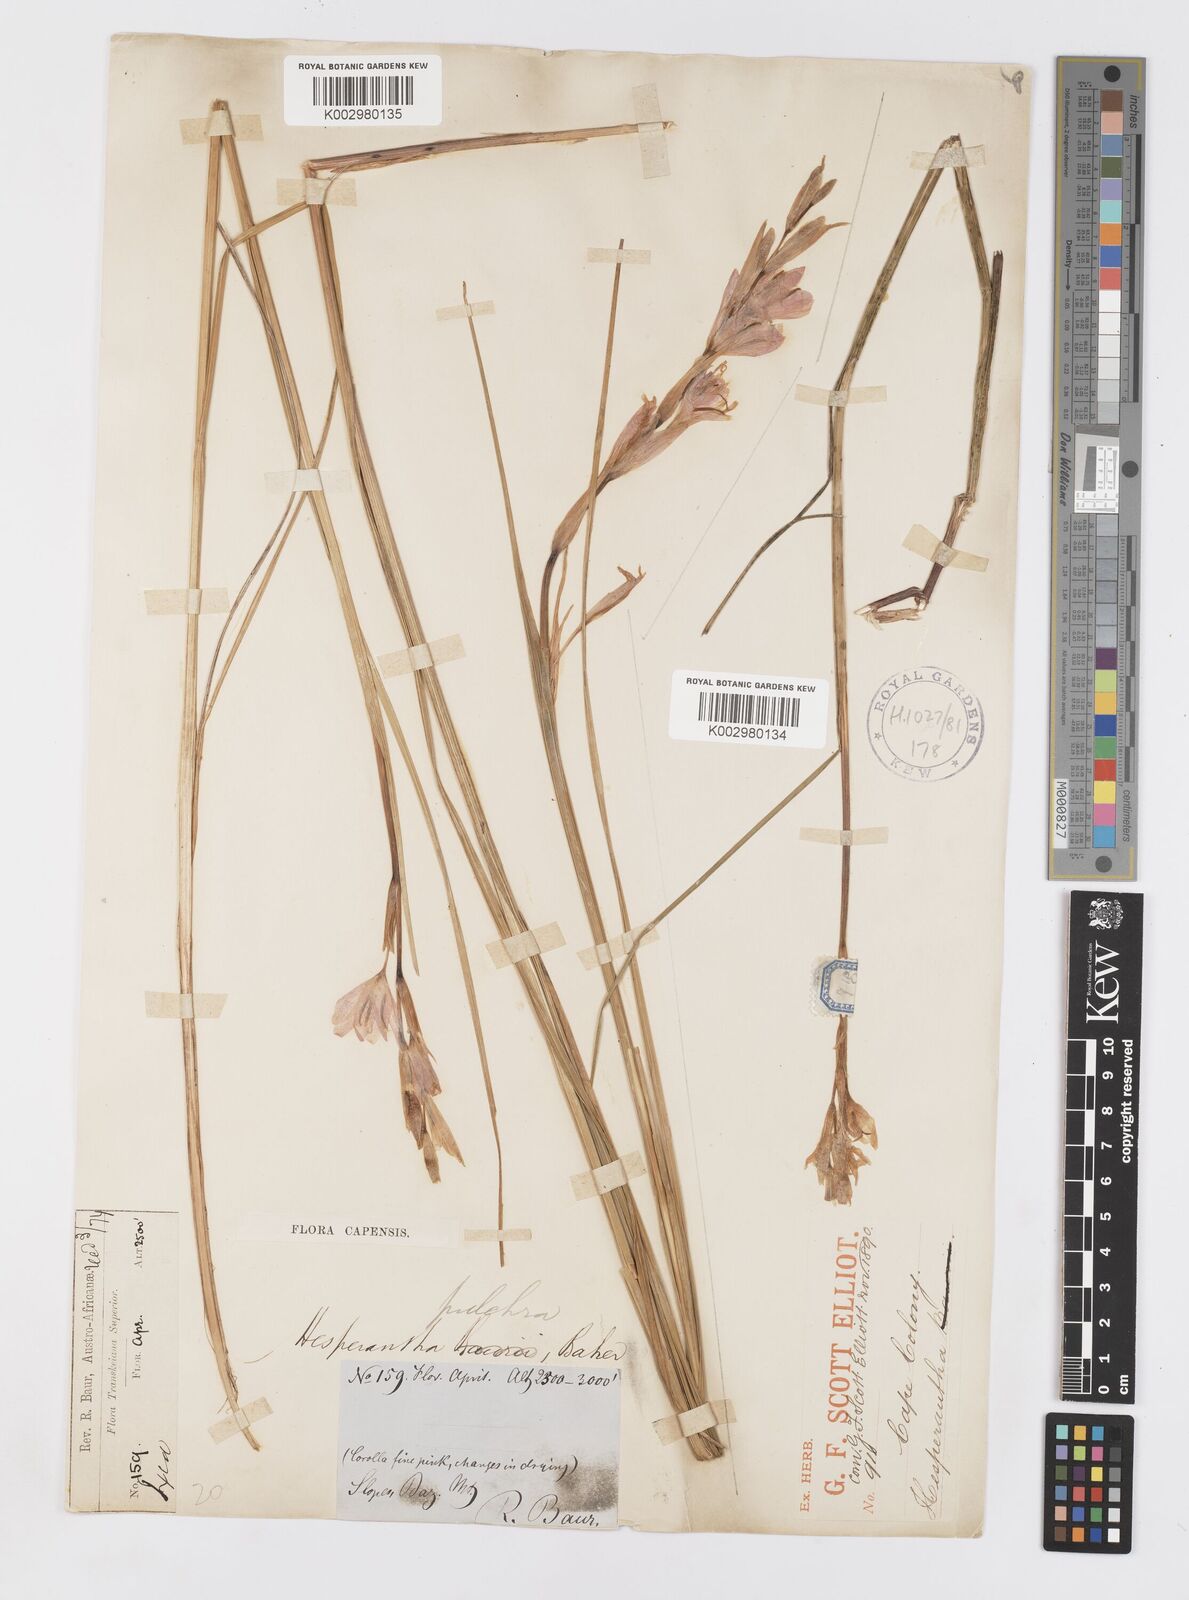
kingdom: Plantae
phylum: Tracheophyta
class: Liliopsida
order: Asparagales
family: Iridaceae
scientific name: Iridaceae
